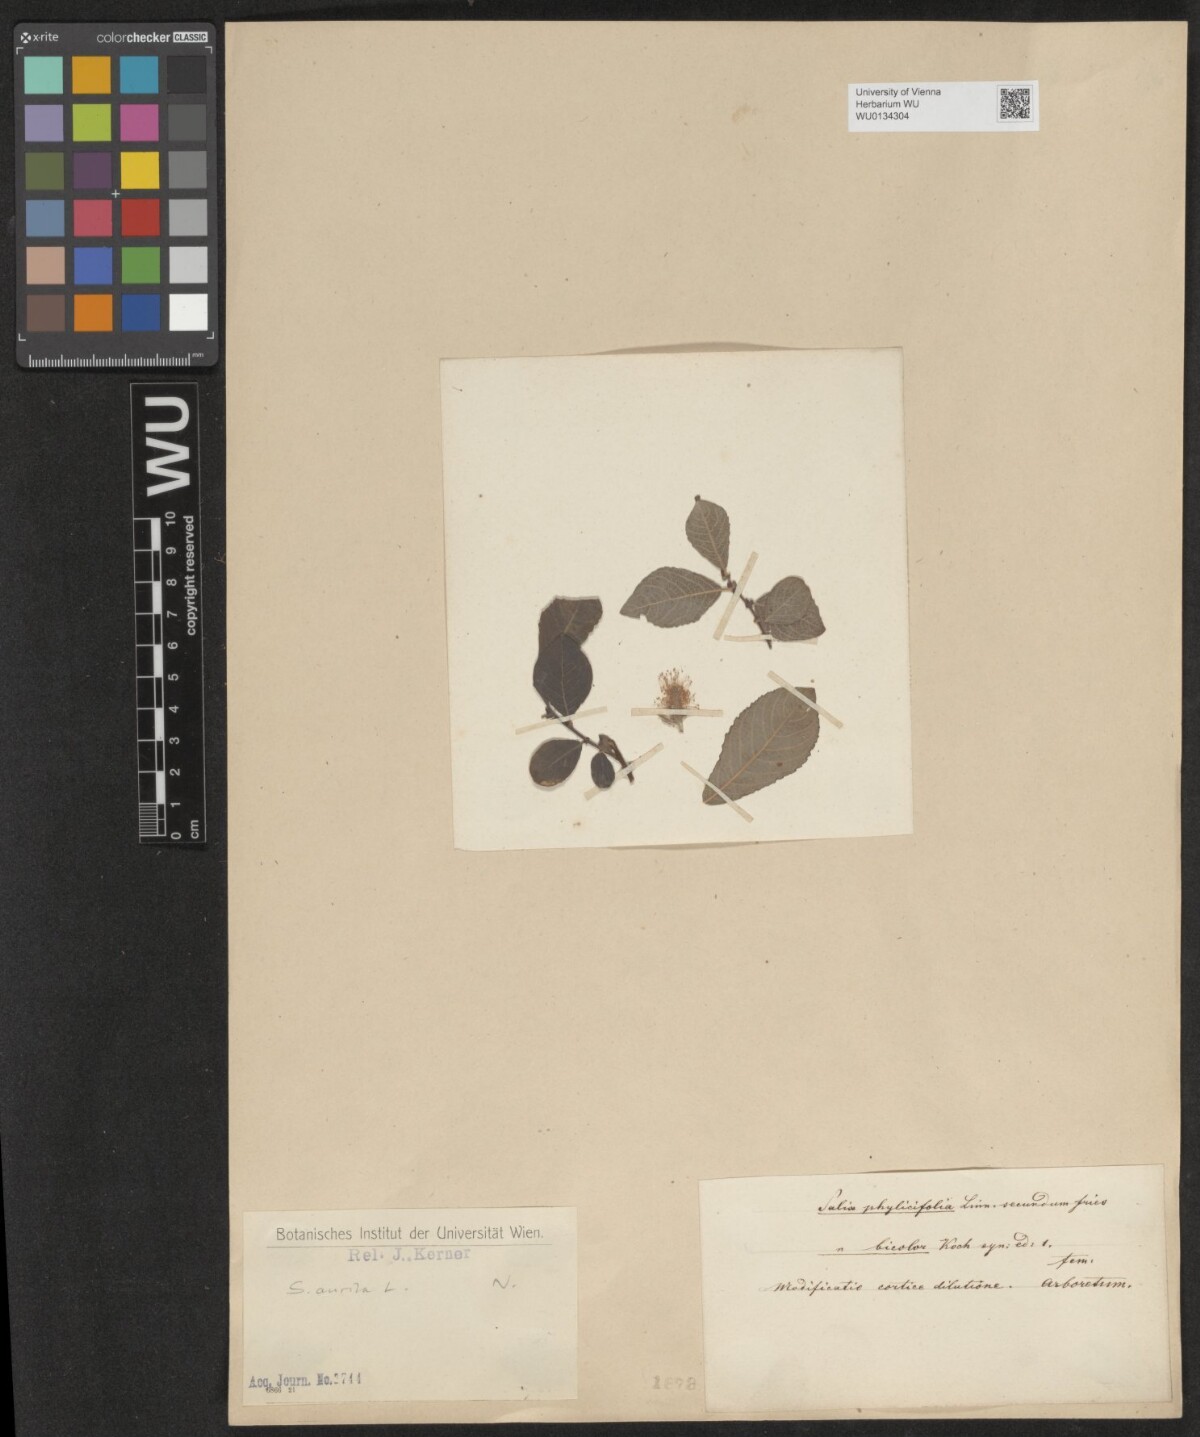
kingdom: Plantae
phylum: Tracheophyta
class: Magnoliopsida
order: Malpighiales
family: Salicaceae
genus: Salix
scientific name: Salix aurita
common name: Eared willow
